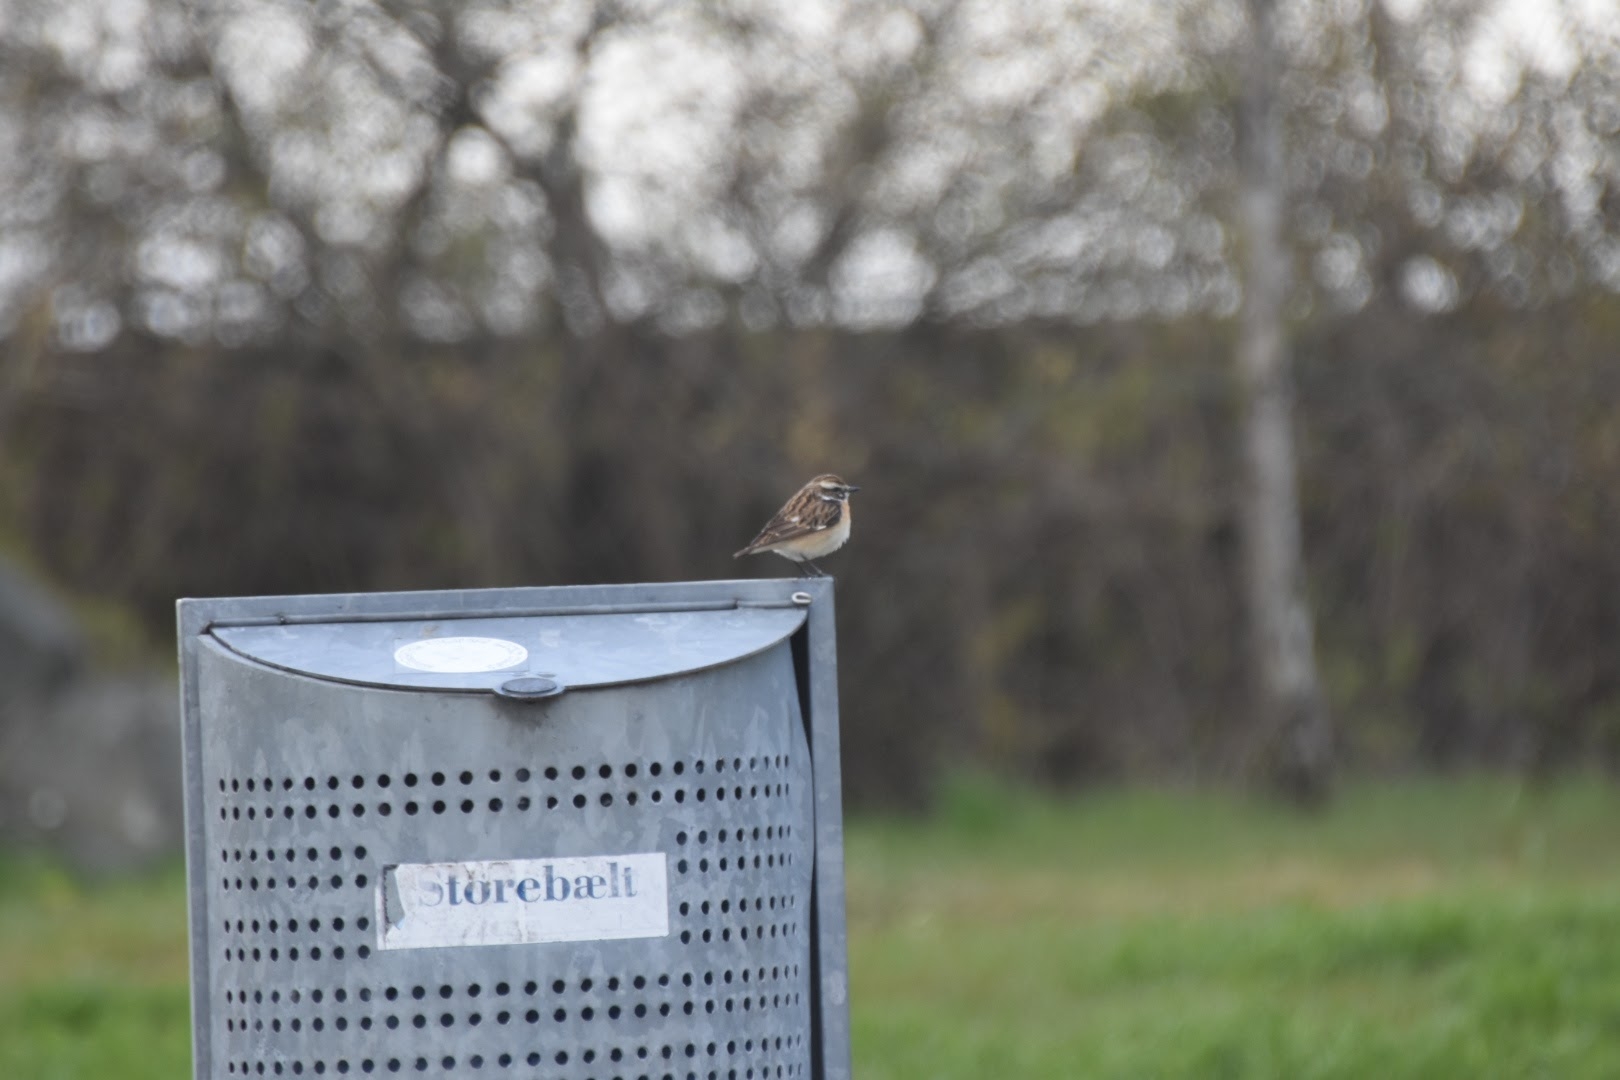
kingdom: Animalia
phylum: Chordata
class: Aves
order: Passeriformes
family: Muscicapidae
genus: Saxicola
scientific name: Saxicola rubetra
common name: Bynkefugl
